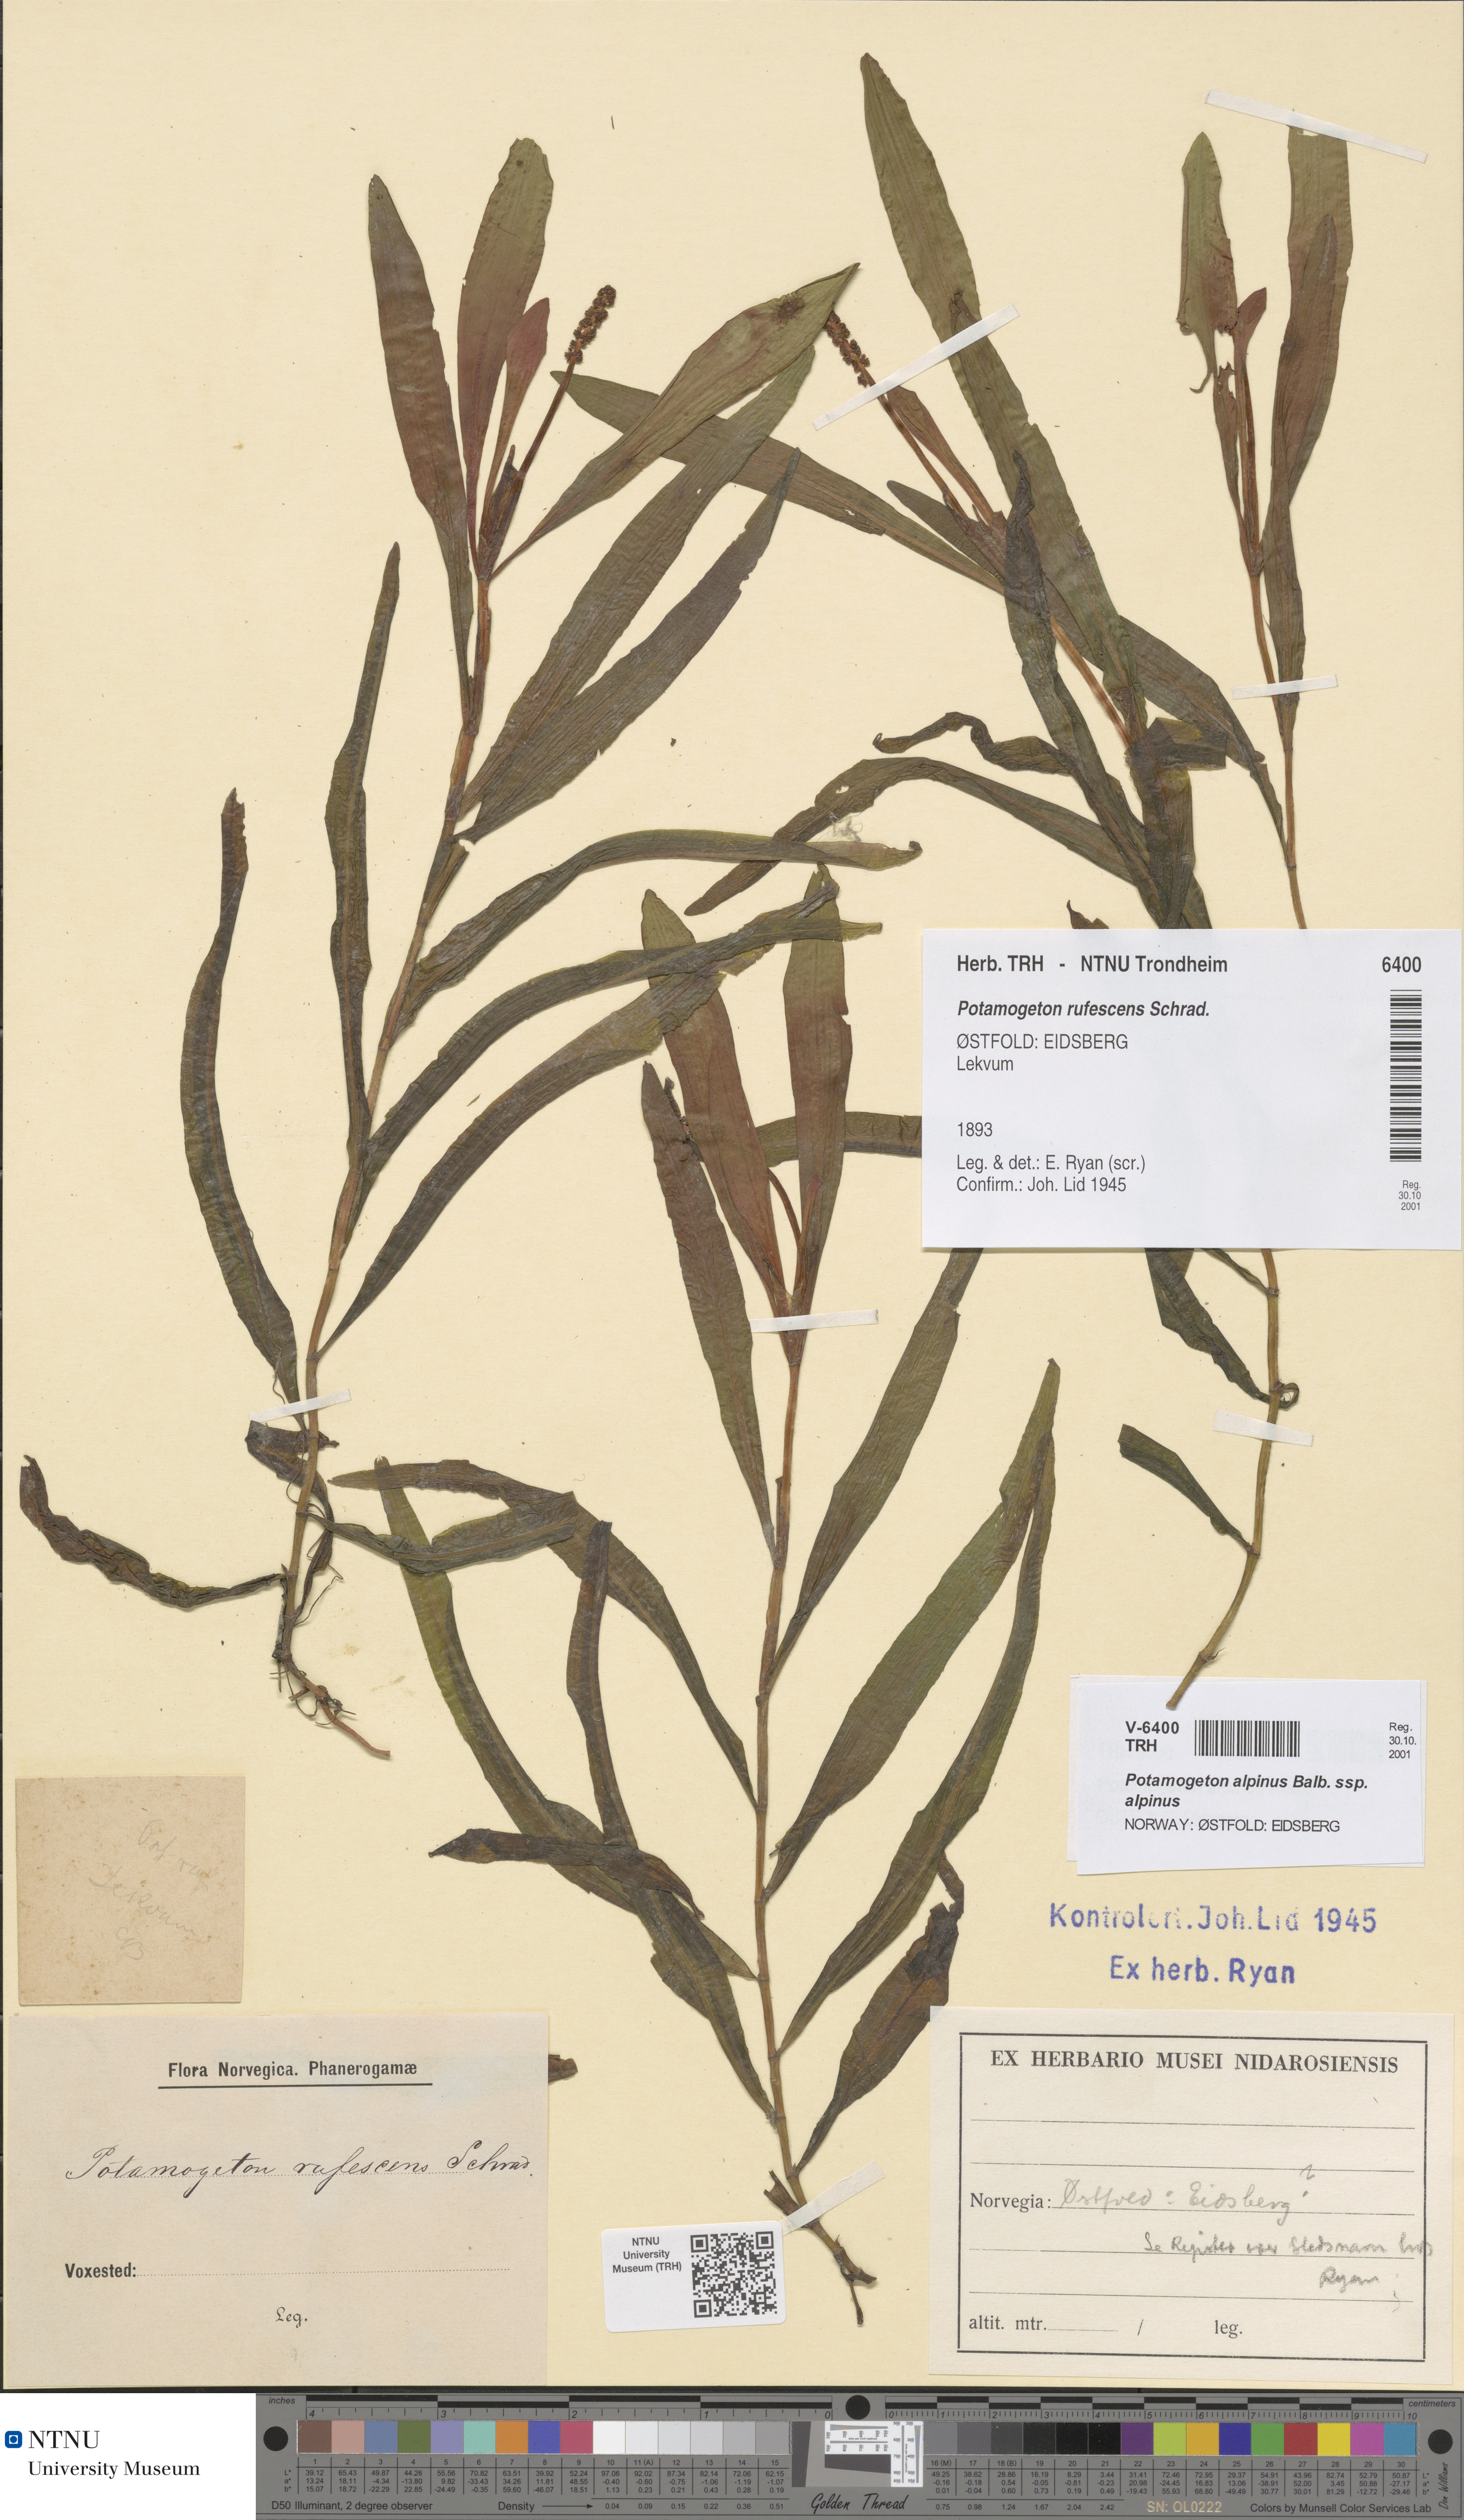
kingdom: Plantae
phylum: Tracheophyta
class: Liliopsida
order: Alismatales
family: Potamogetonaceae
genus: Potamogeton
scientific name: Potamogeton alpinus
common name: Red pondweed
